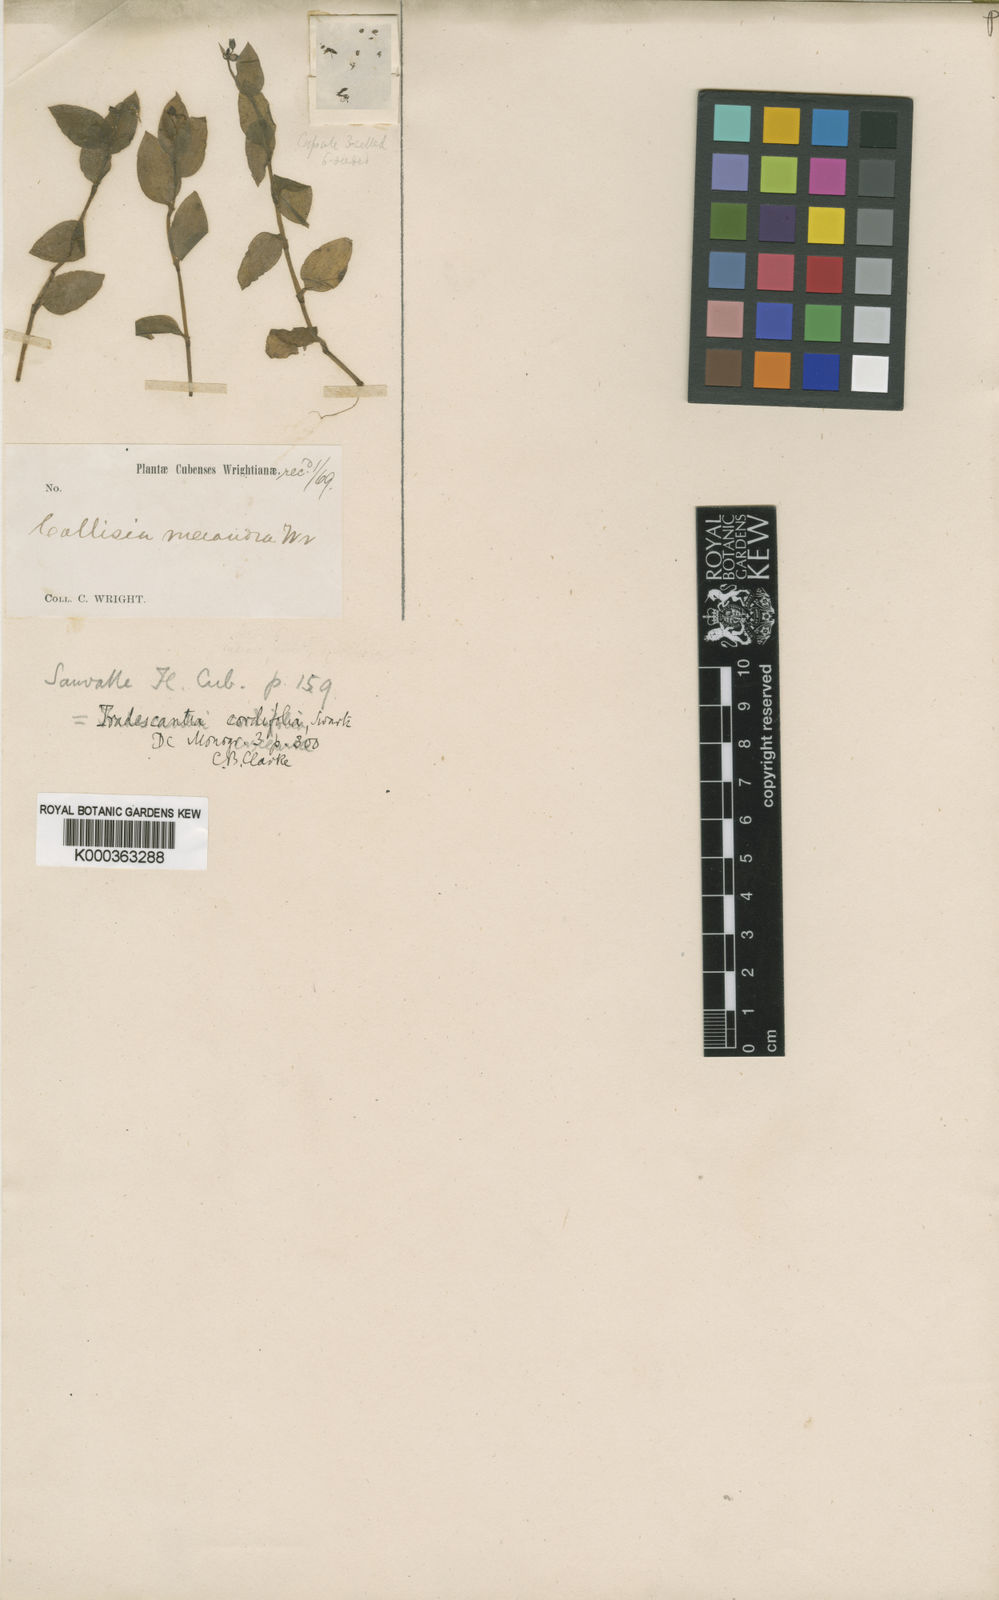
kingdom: Plantae
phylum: Tracheophyta
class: Liliopsida
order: Commelinales
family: Commelinaceae
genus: Callisia
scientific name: Callisia cordifolia
